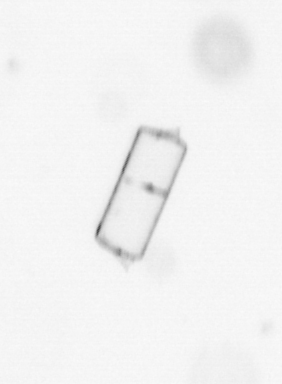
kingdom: Chromista
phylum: Ochrophyta
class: Bacillariophyceae
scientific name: Bacillariophyceae
